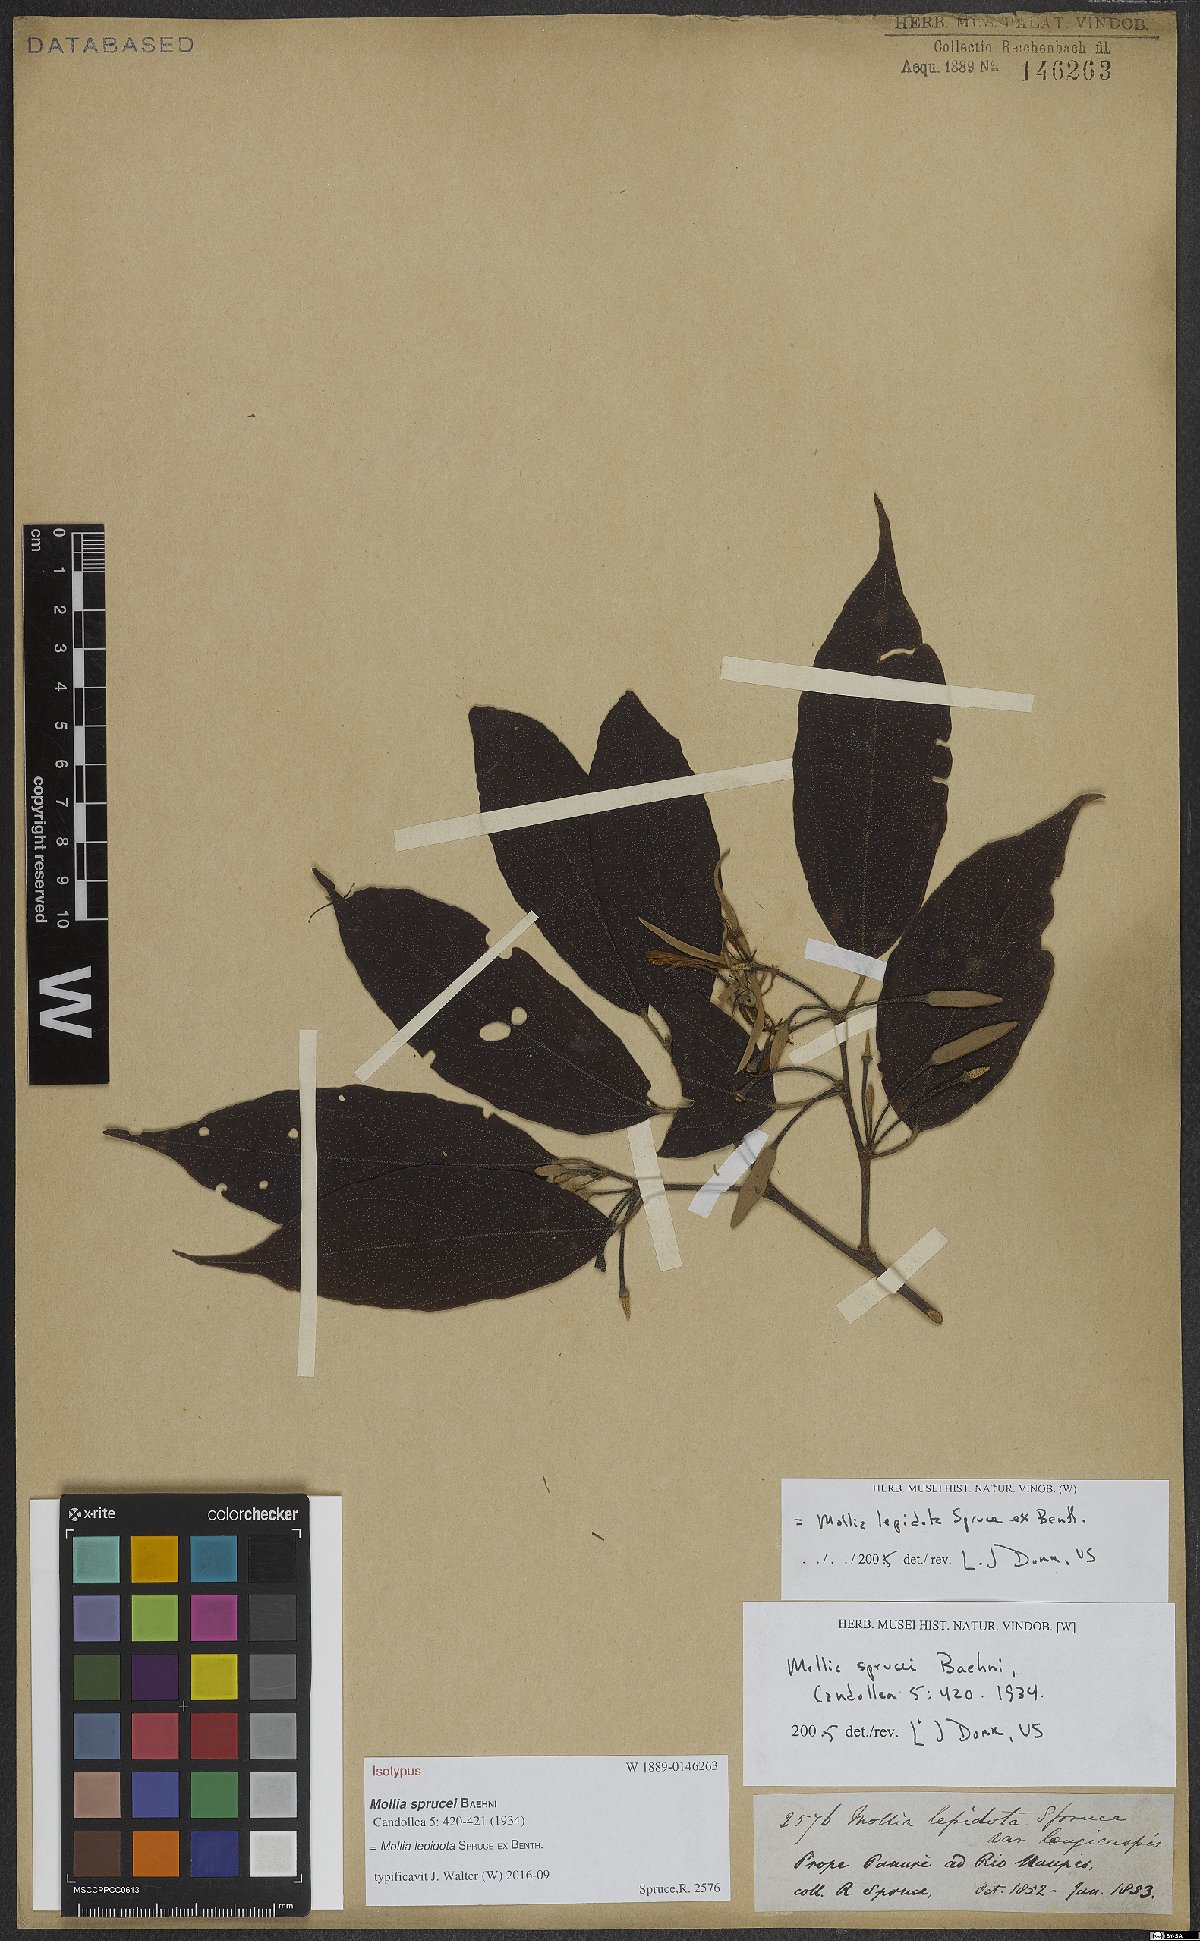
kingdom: Plantae
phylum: Tracheophyta
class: Magnoliopsida
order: Malvales
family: Malvaceae
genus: Mollia
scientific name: Mollia lepidota
